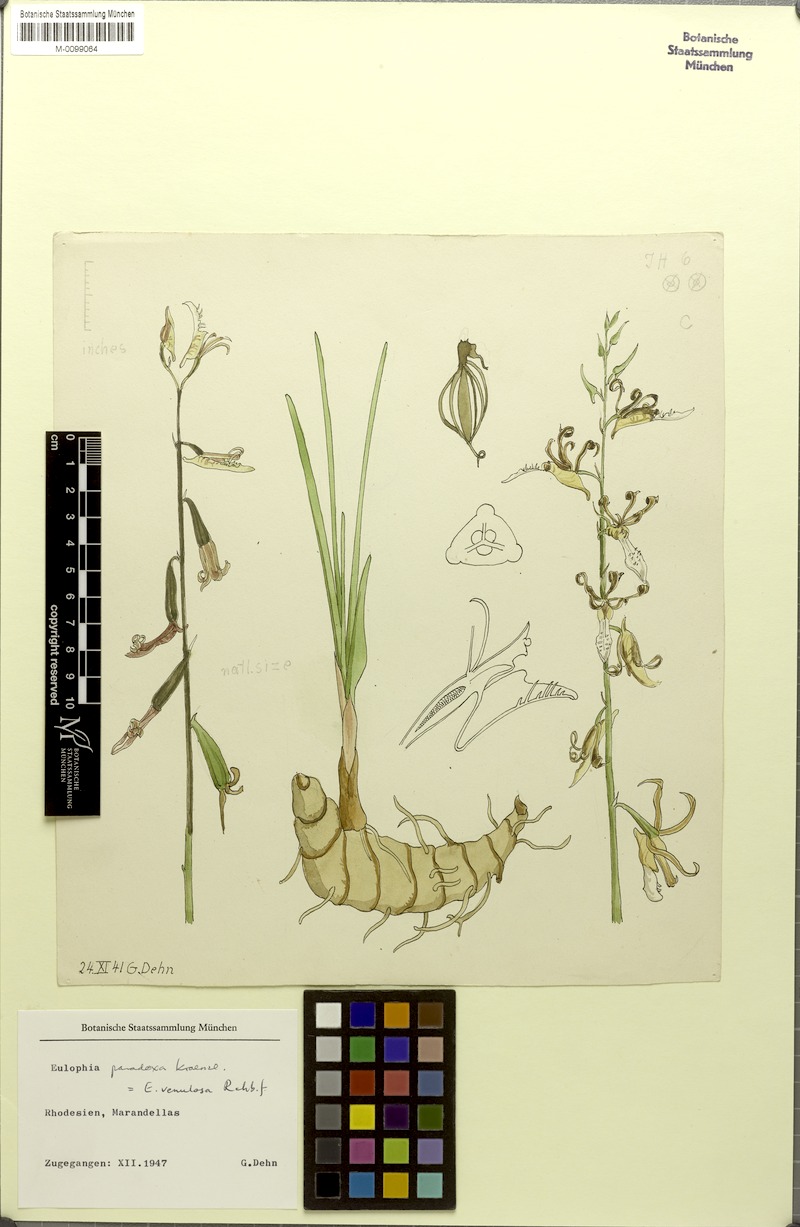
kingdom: Plantae
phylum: Tracheophyta
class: Liliopsida
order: Asparagales
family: Orchidaceae
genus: Eulophia
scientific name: Eulophia venulosa
